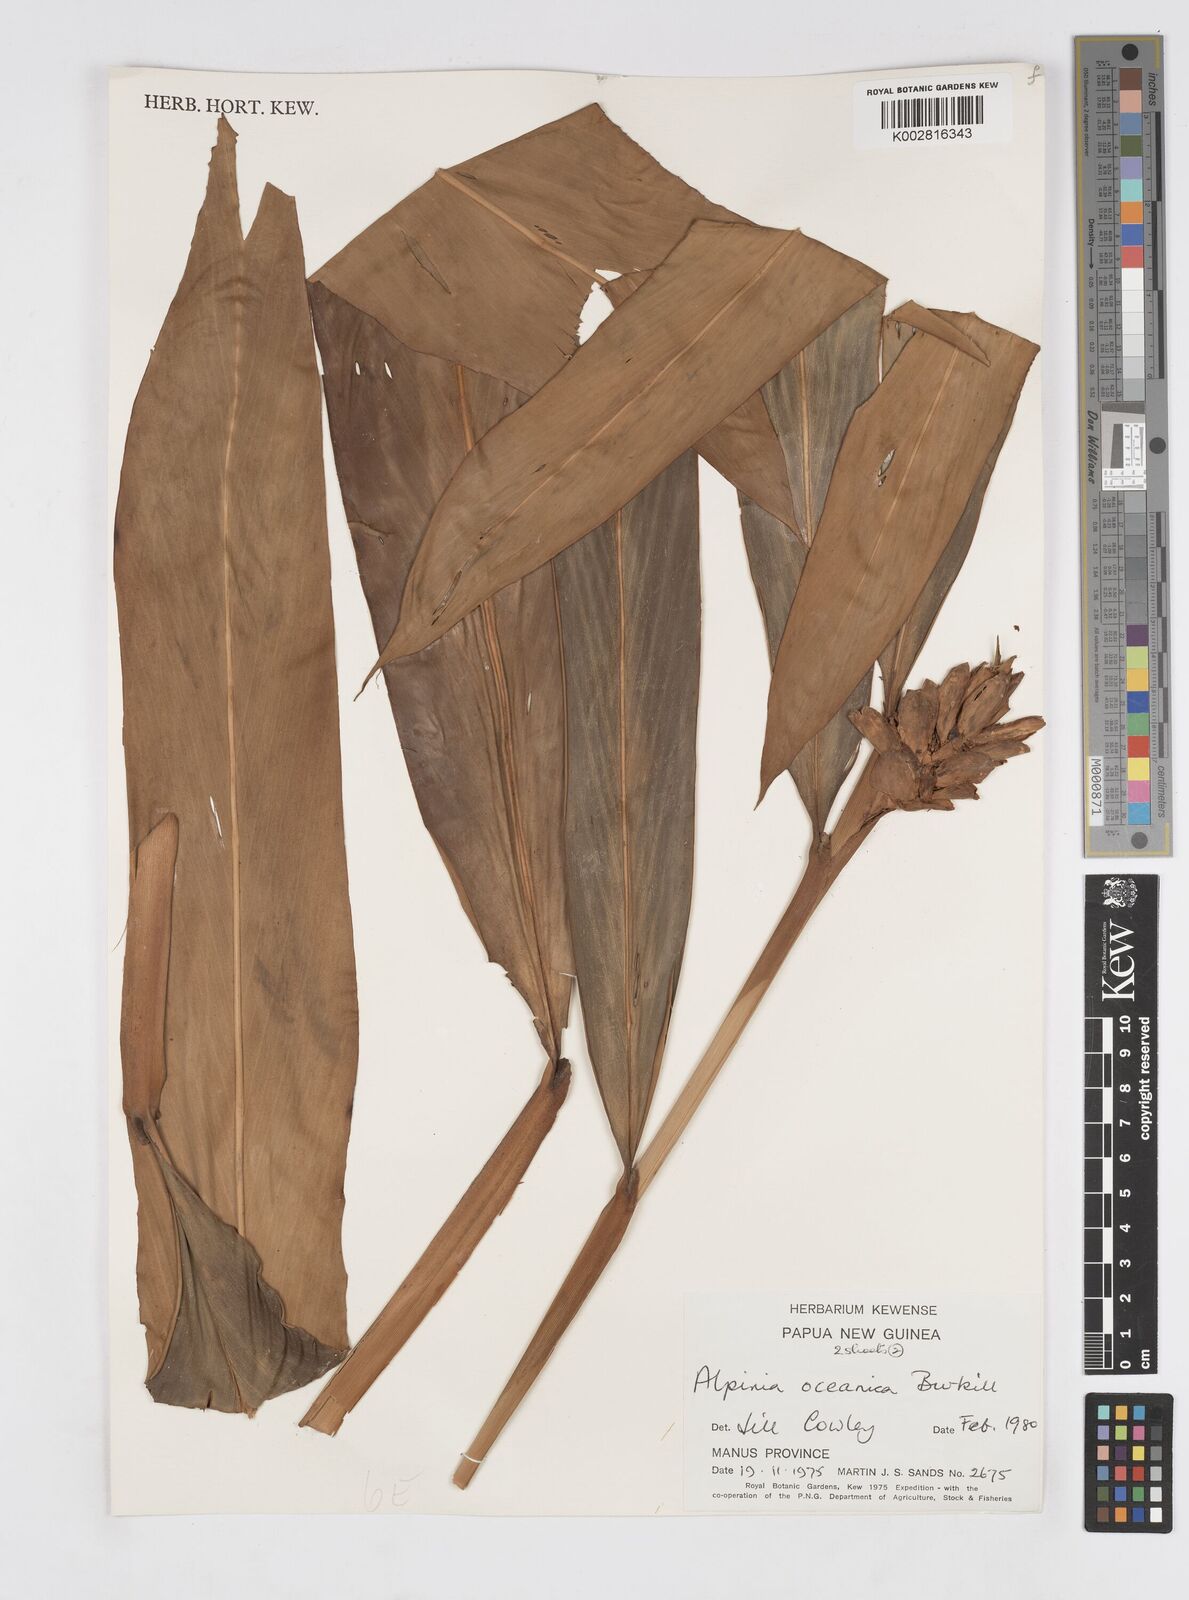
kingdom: Plantae
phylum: Tracheophyta
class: Liliopsida
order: Zingiberales
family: Zingiberaceae
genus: Alpinia
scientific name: Alpinia oceanica
